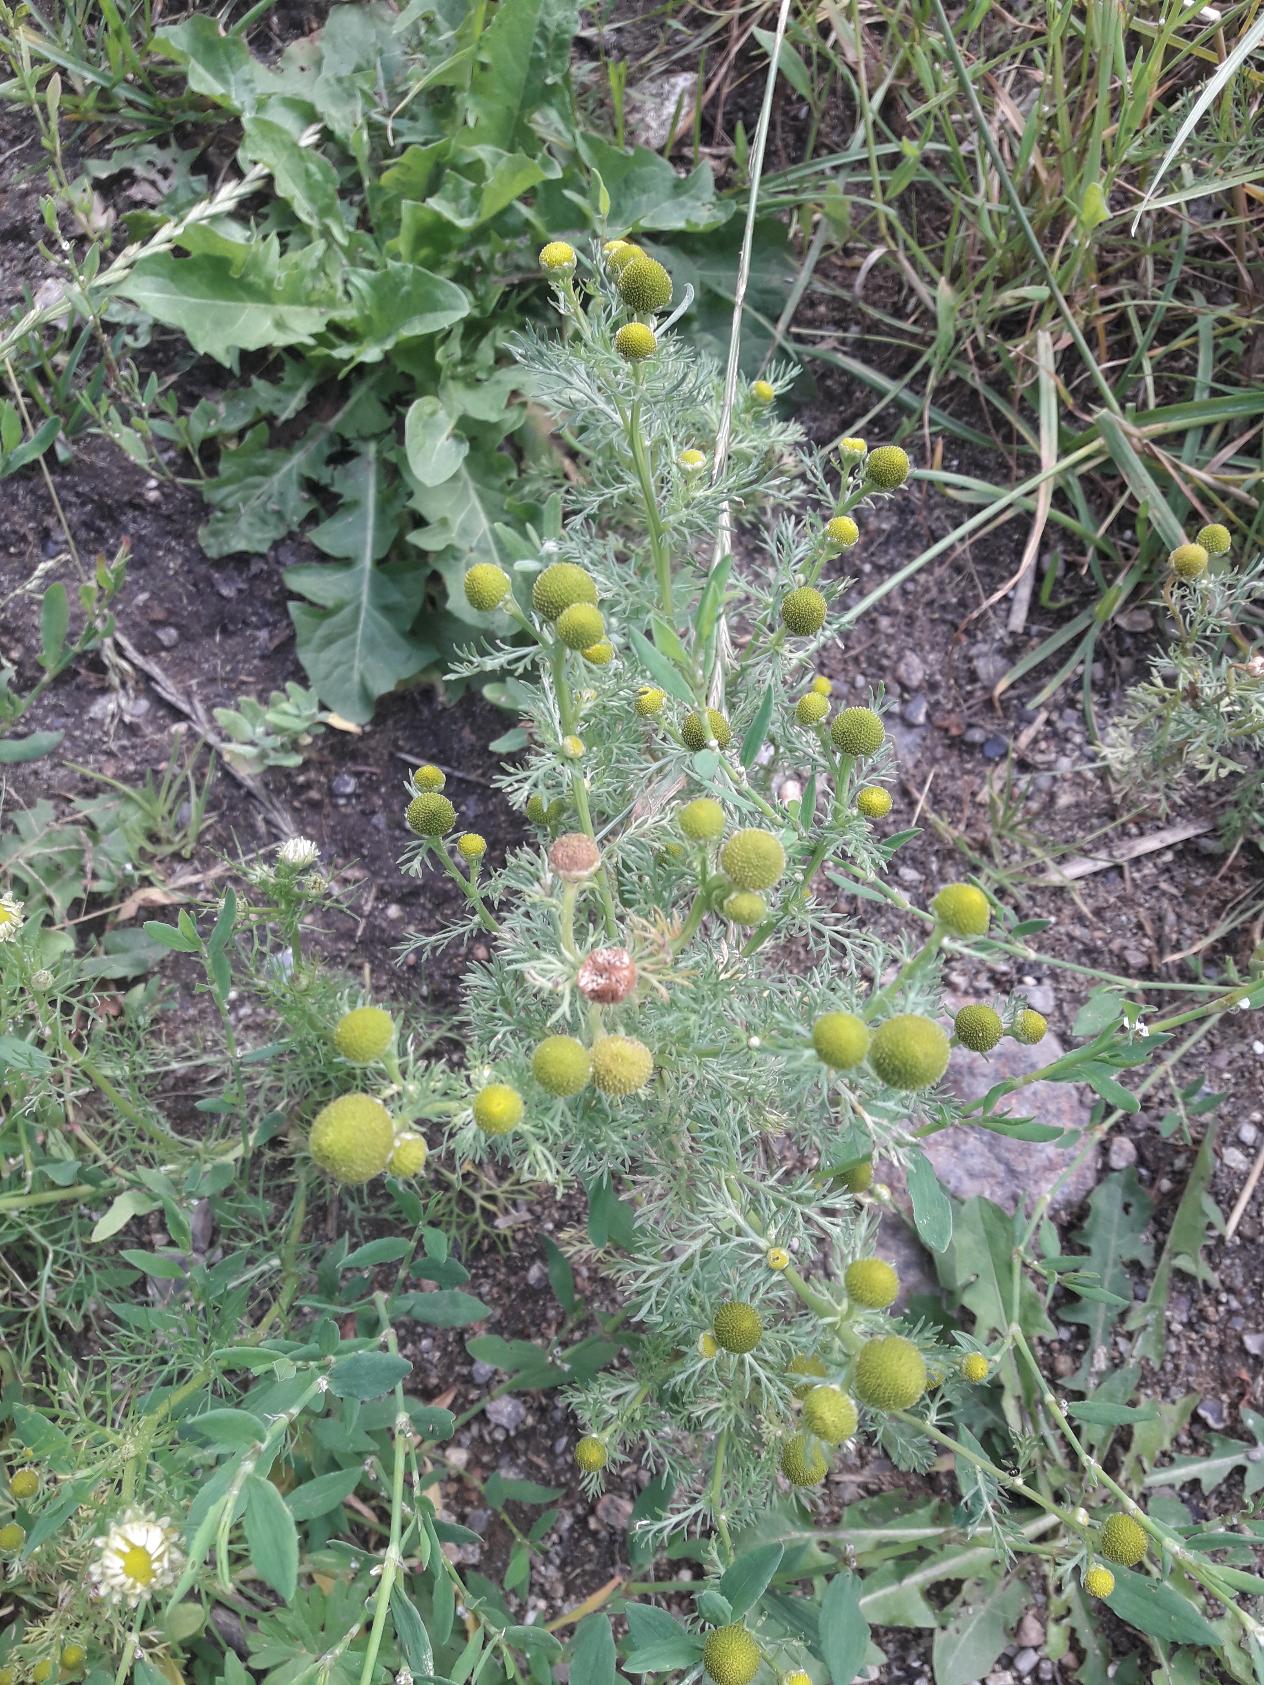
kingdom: Plantae
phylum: Tracheophyta
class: Magnoliopsida
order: Asterales
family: Asteraceae
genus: Matricaria
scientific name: Matricaria discoidea
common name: Skive-kamille
